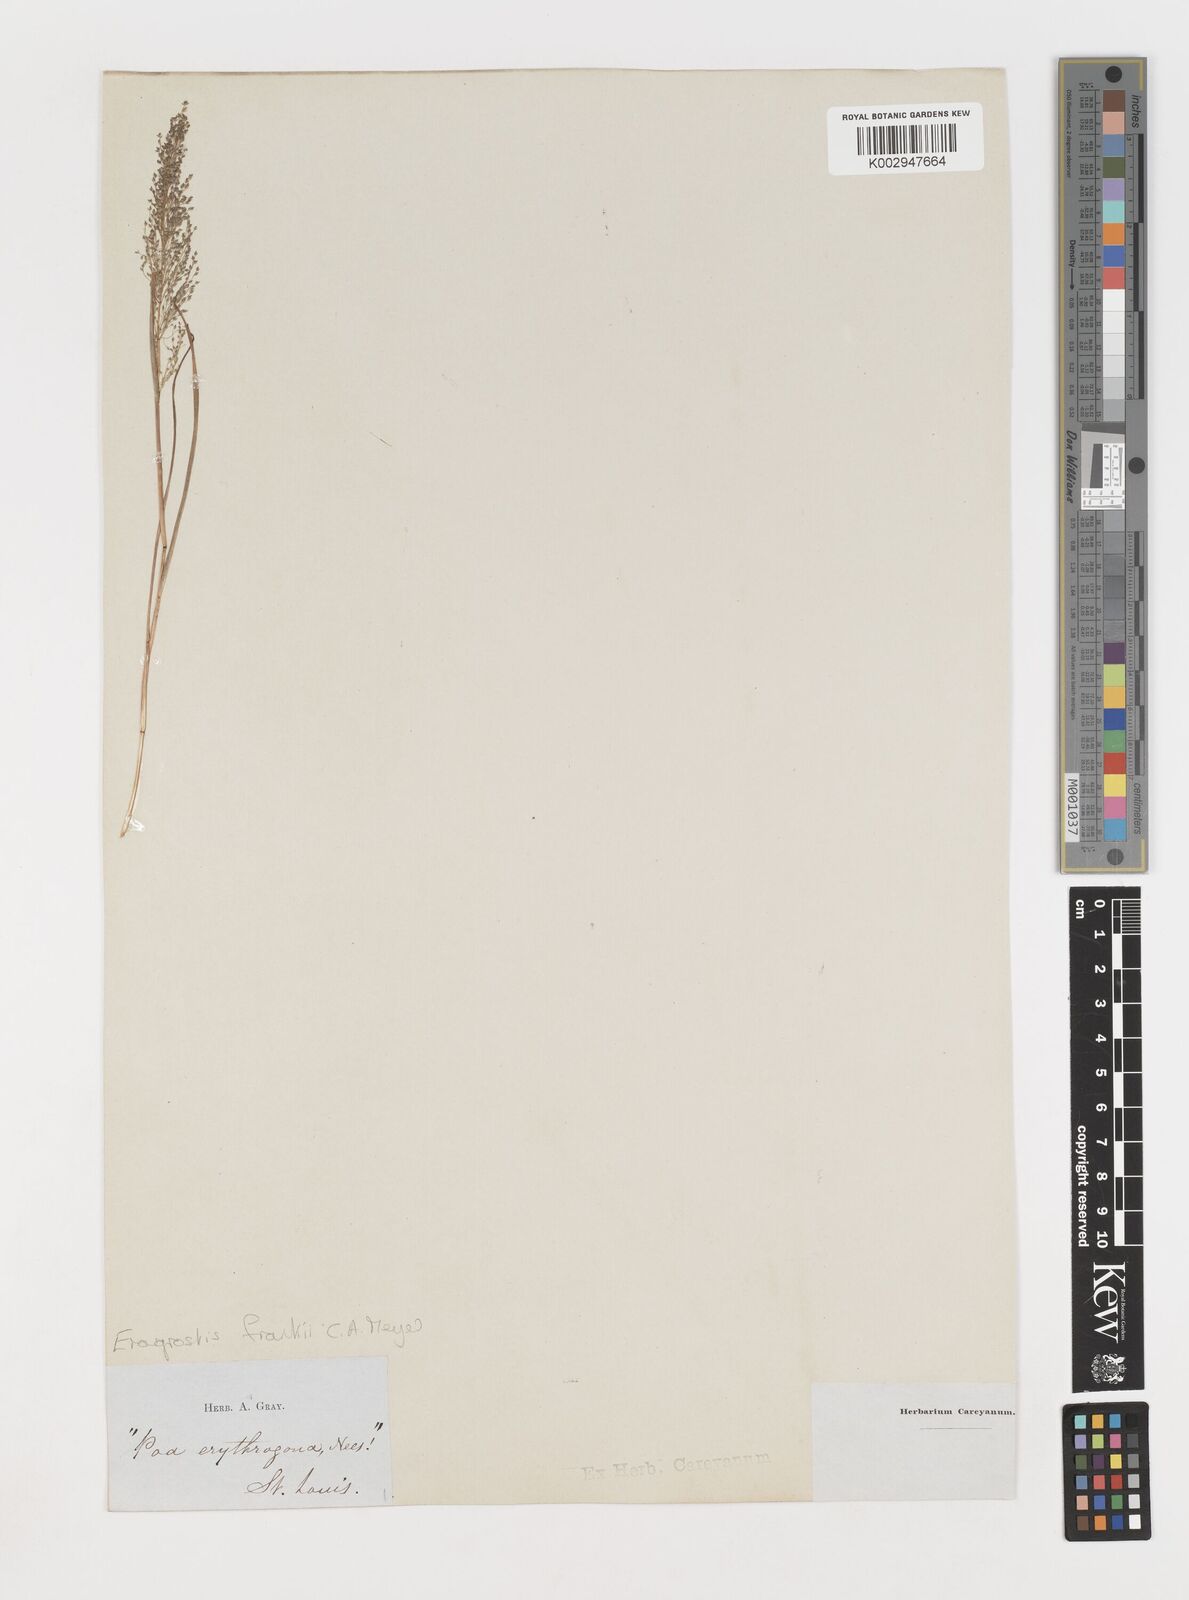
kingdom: Plantae
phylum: Tracheophyta
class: Liliopsida
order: Poales
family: Poaceae
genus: Eragrostis
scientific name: Eragrostis frankii
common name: Frank's lovegrass
